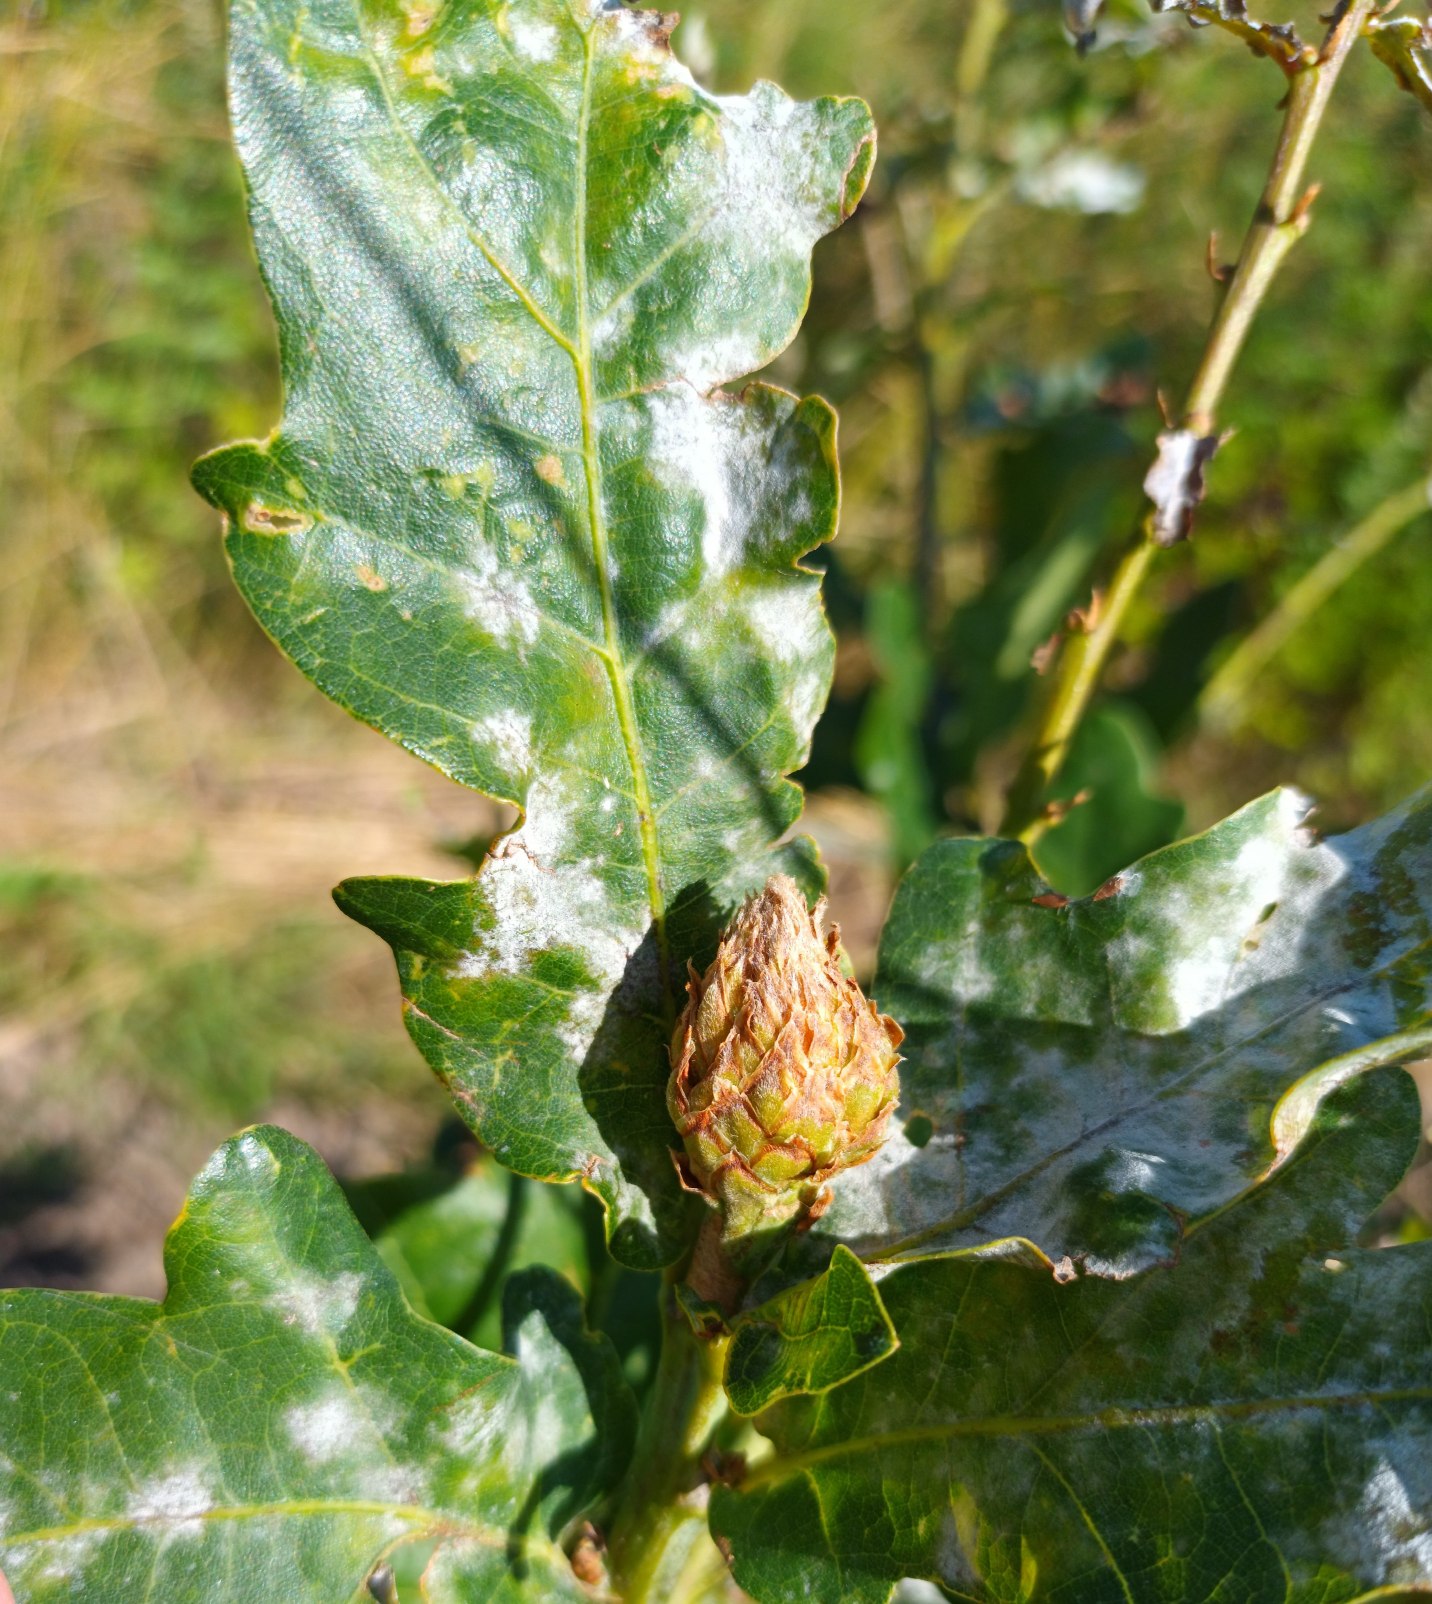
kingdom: Animalia
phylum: Arthropoda
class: Insecta
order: Hymenoptera
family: Cynipidae
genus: Andricus
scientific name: Andricus foecundatrix
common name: Artiskokgalhveps
